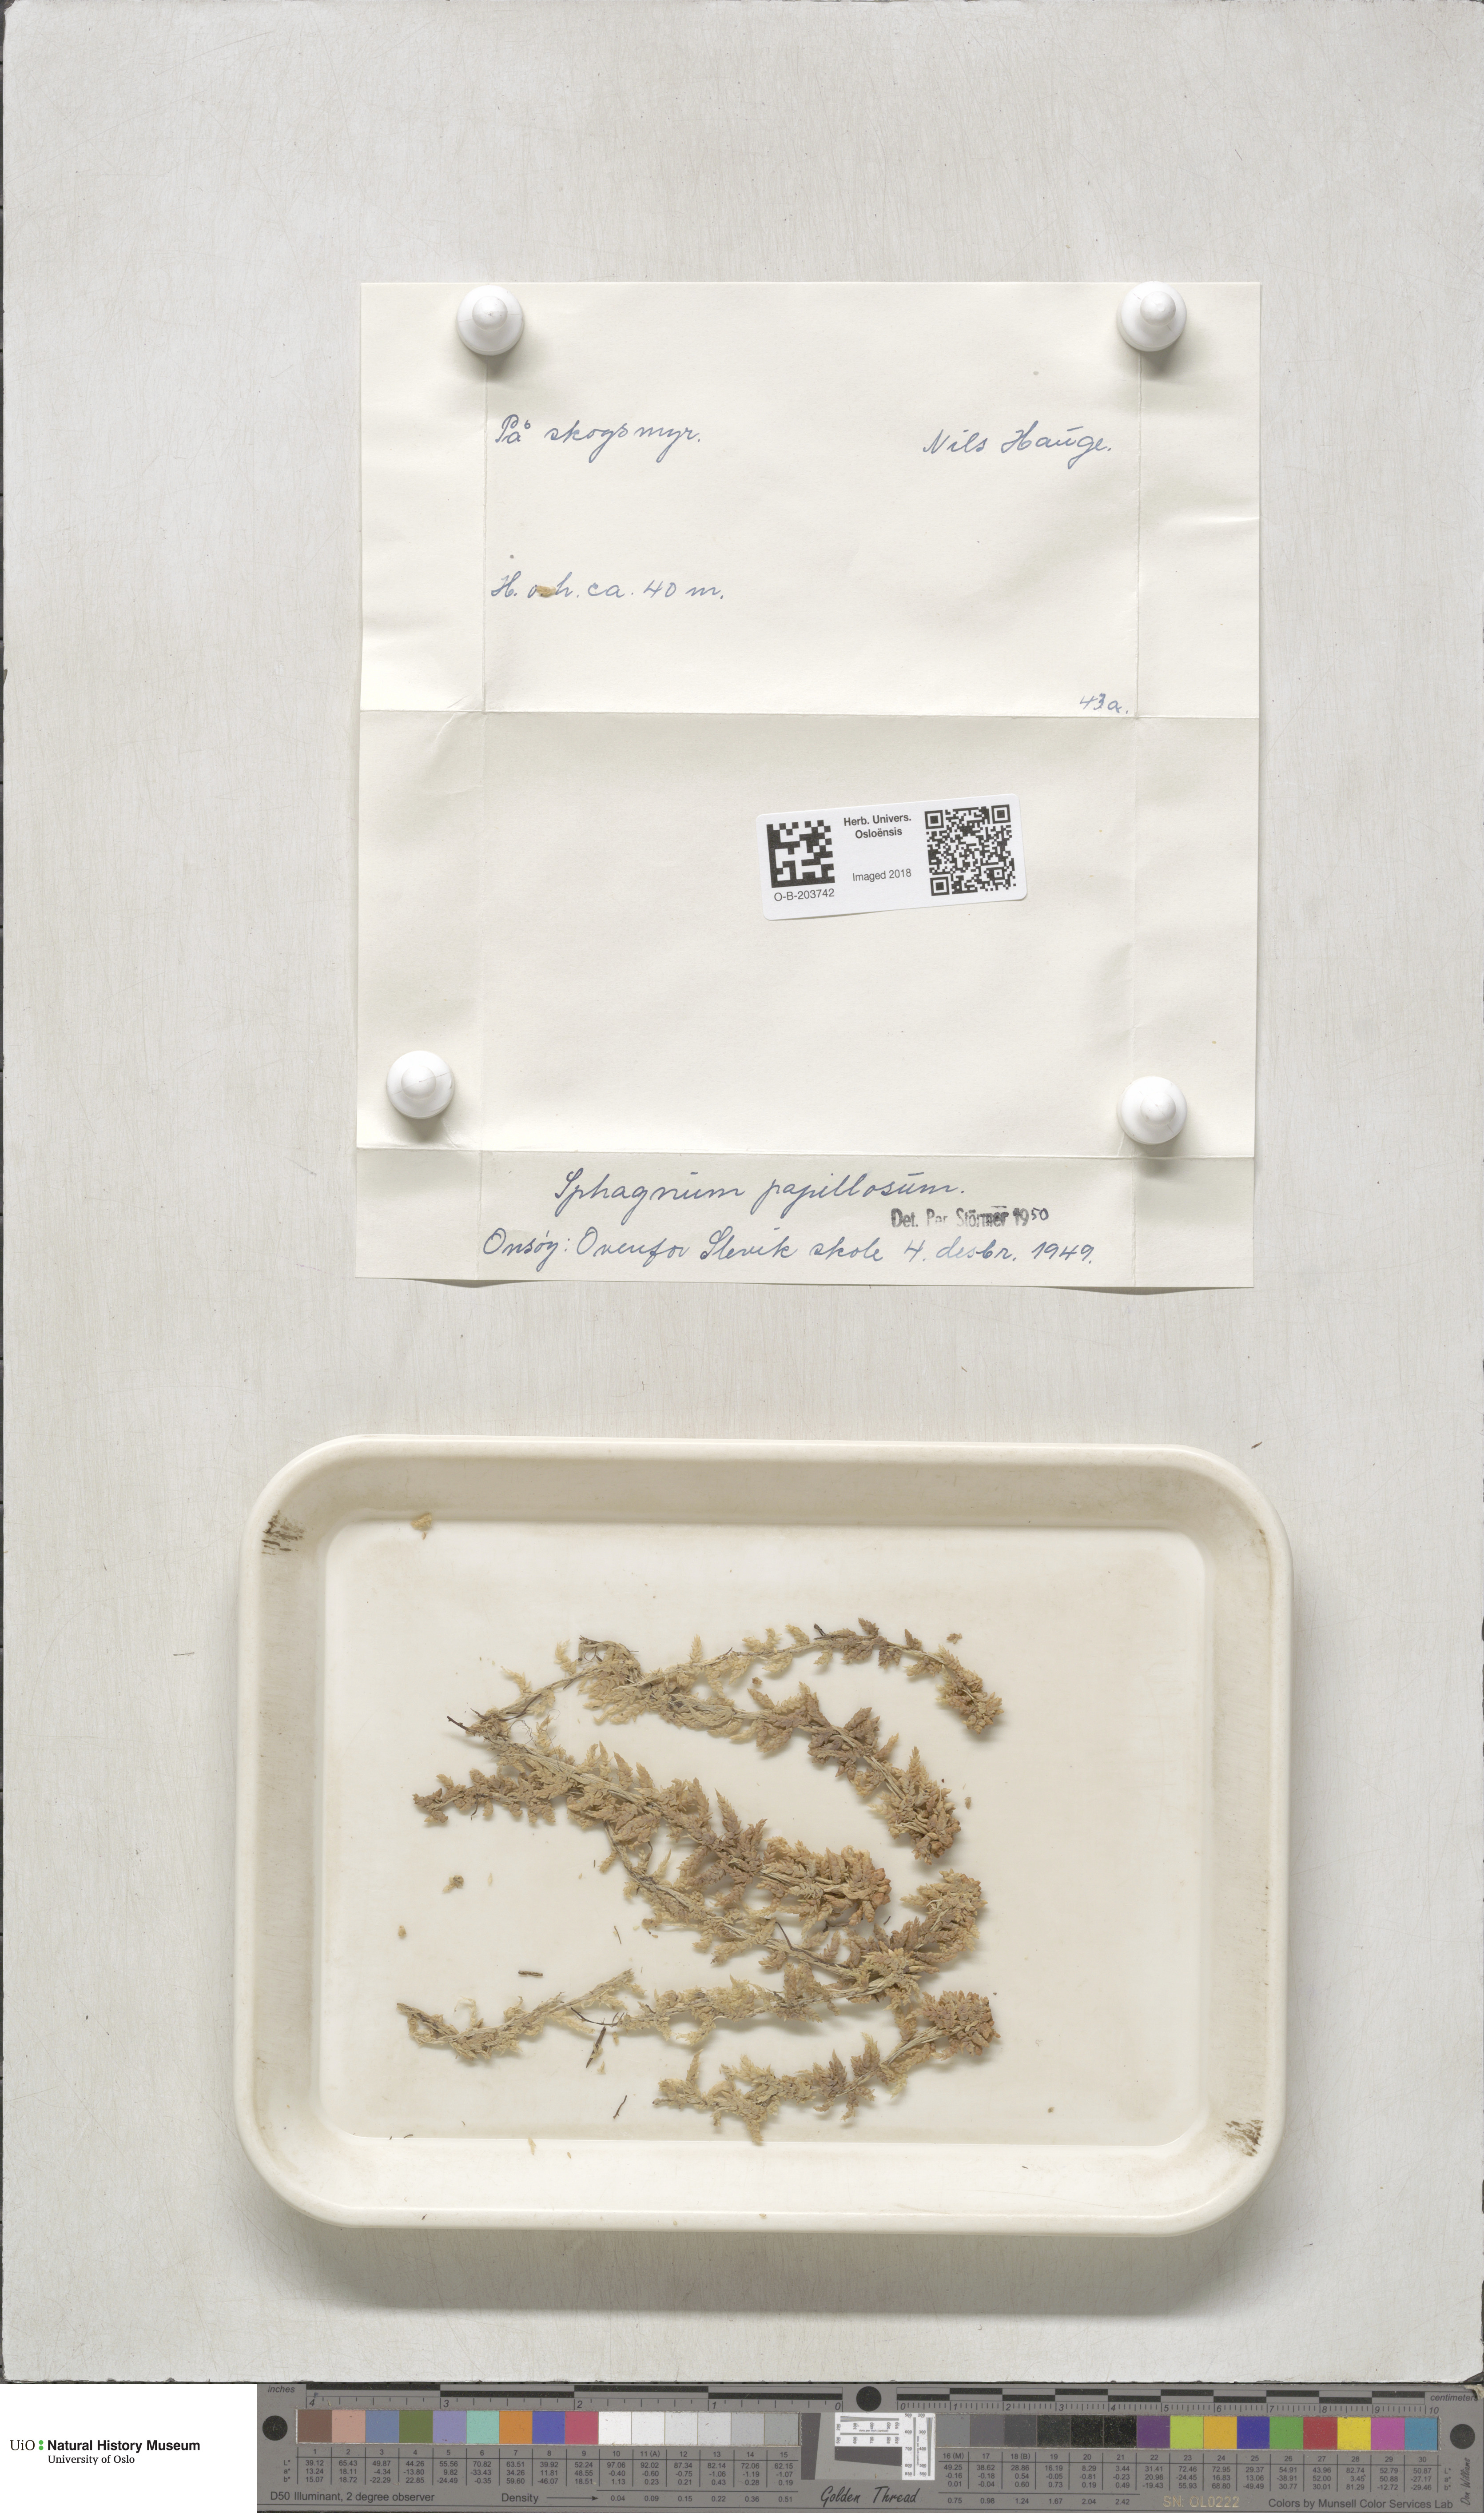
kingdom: Plantae
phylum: Bryophyta
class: Sphagnopsida
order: Sphagnales
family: Sphagnaceae
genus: Sphagnum
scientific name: Sphagnum papillosum
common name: Papillose peat moss
